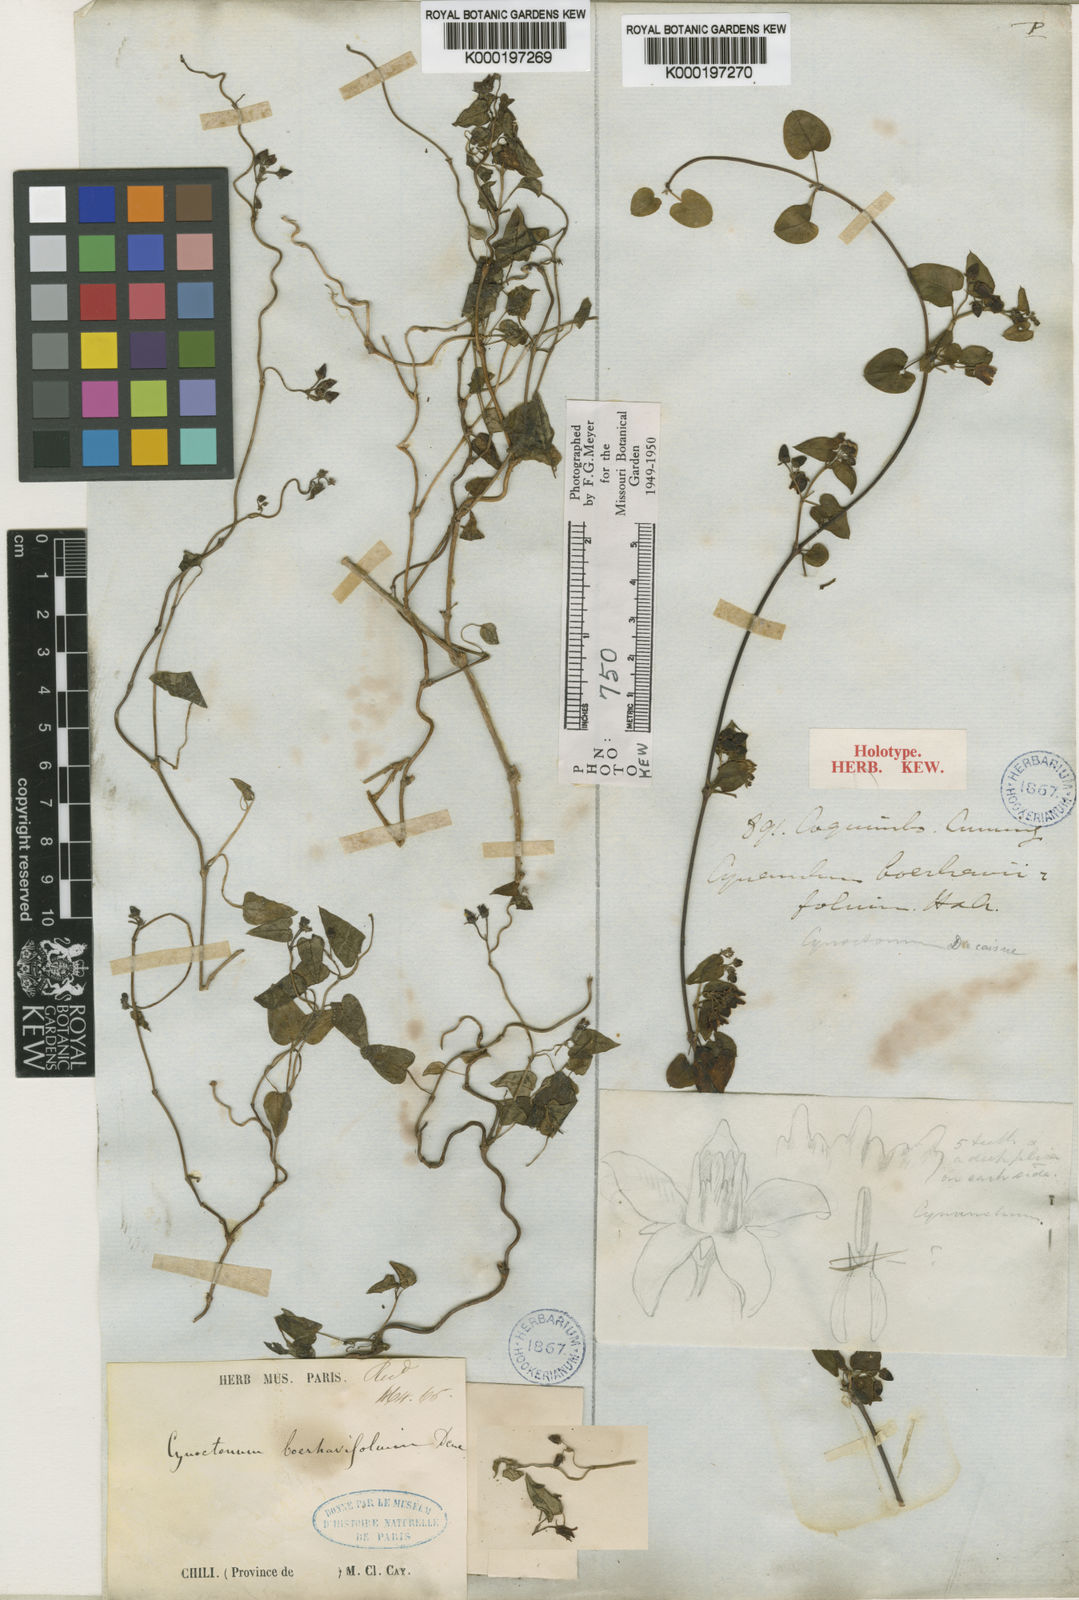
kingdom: Plantae
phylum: Tracheophyta
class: Magnoliopsida
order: Gentianales
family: Apocynaceae
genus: Diplolepis
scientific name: Diplolepis boerhaviifolia
